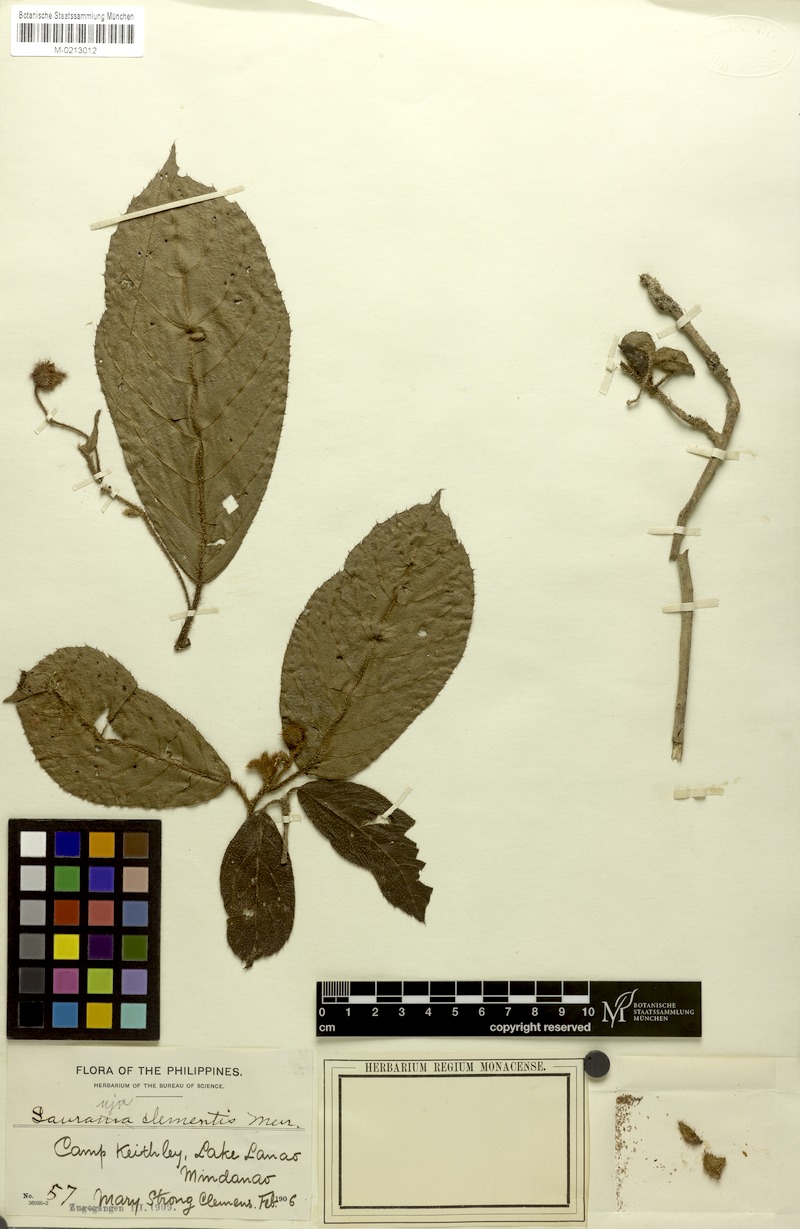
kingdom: Plantae
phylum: Tracheophyta
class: Magnoliopsida
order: Ericales
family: Actinidiaceae
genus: Saurauia
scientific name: Saurauia clementis
